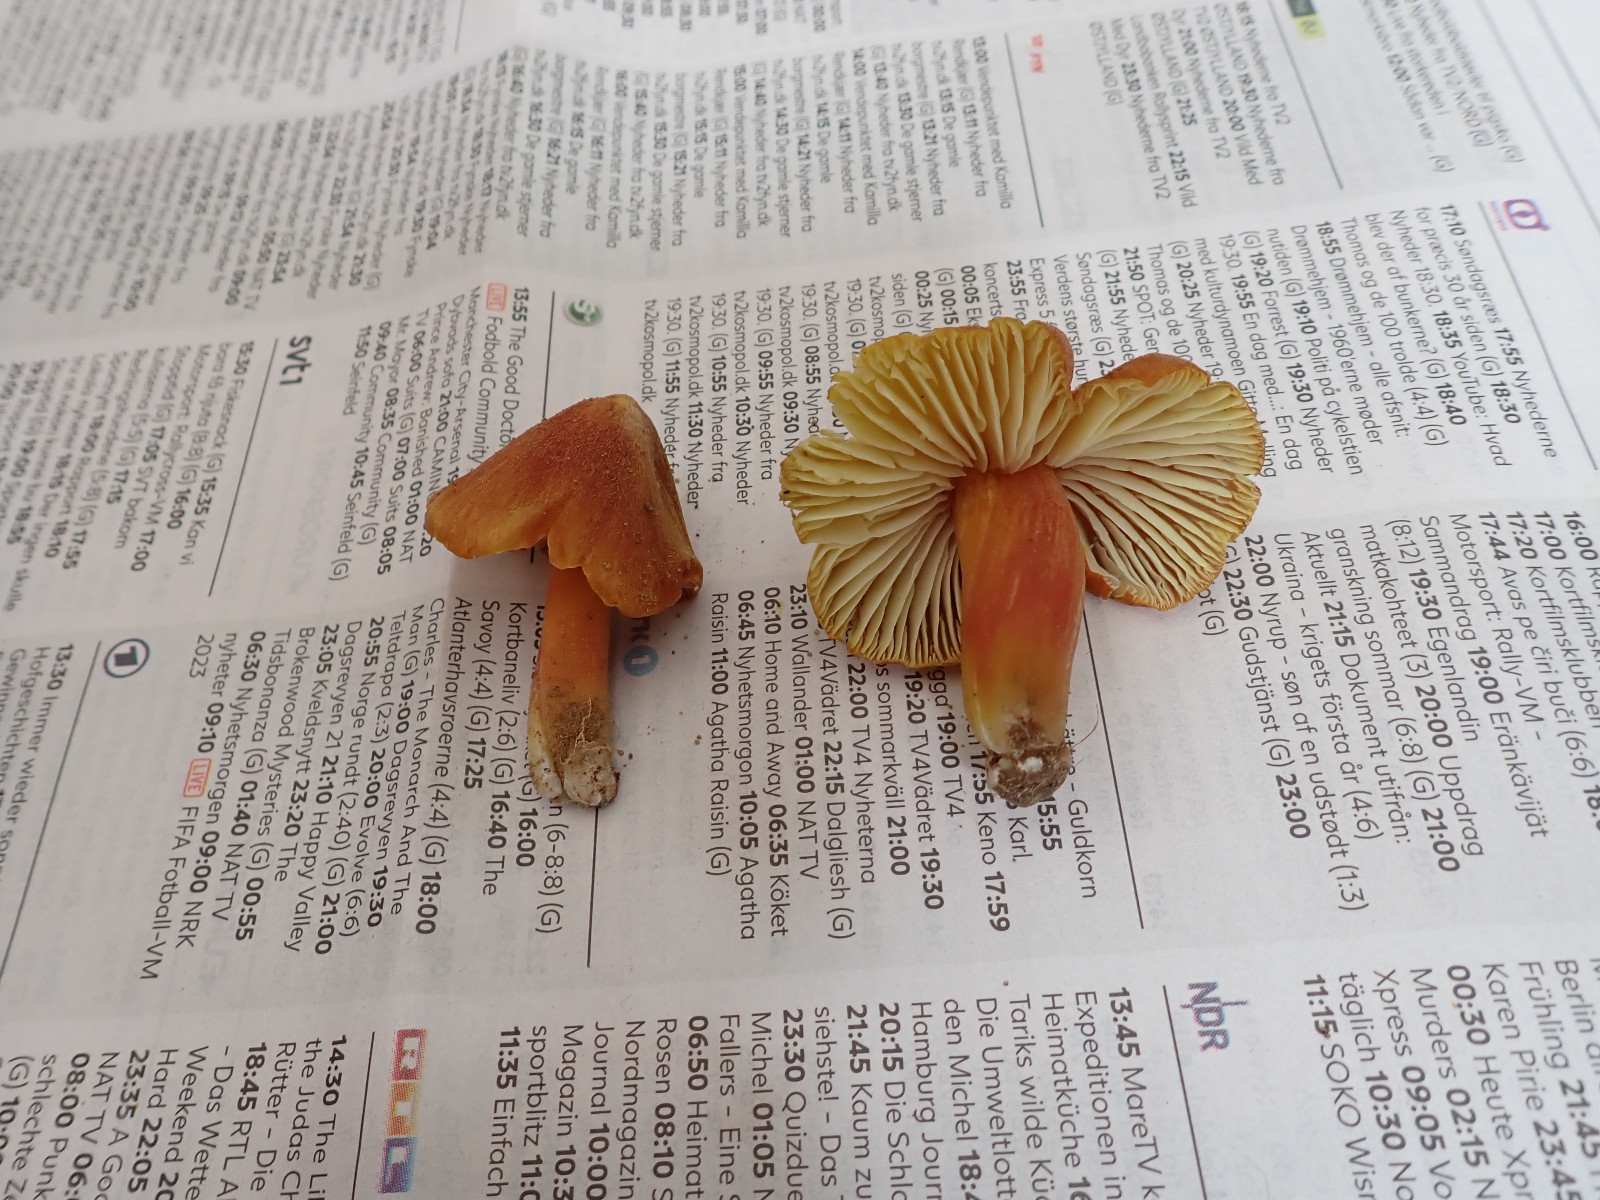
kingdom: Fungi
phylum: Basidiomycota
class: Agaricomycetes
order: Agaricales
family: Hygrophoraceae
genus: Hygrocybe
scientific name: Hygrocybe intermedia
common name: trævlet vokshat
